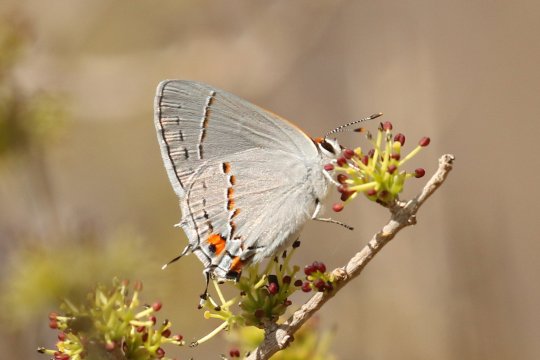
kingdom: Animalia
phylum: Arthropoda
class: Insecta
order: Lepidoptera
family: Lycaenidae
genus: Strymon
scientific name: Strymon melinus
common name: Gray Hairstreak
